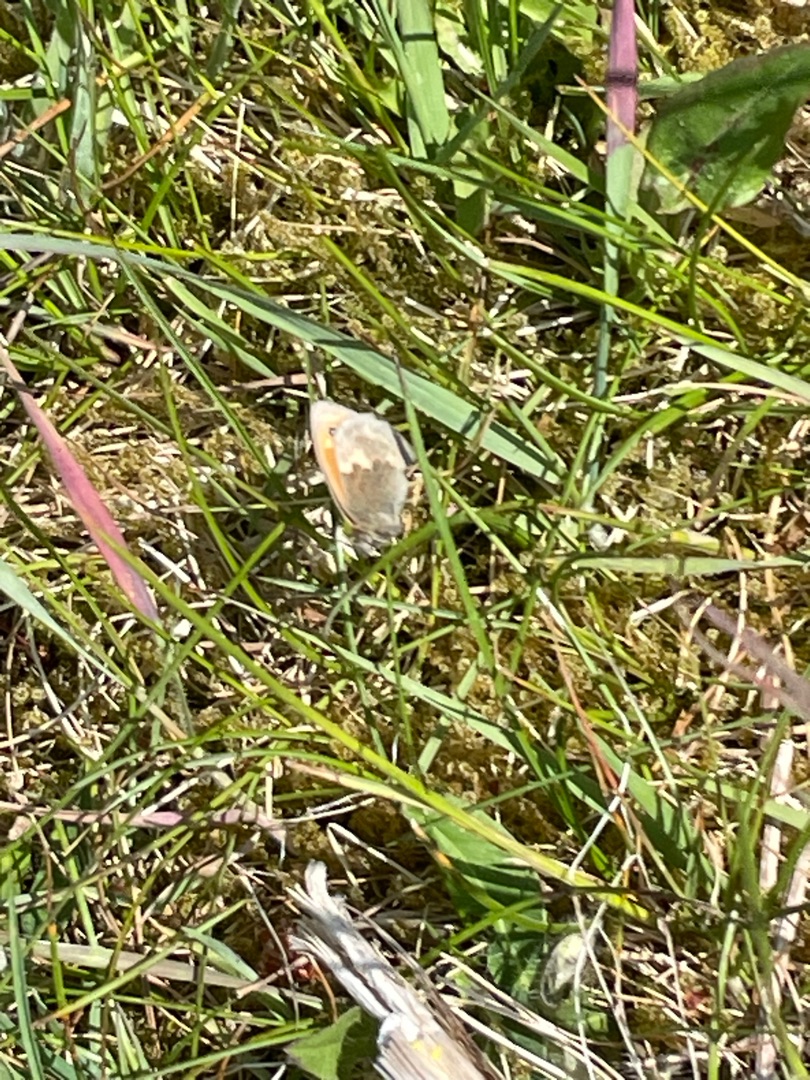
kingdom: Animalia
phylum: Arthropoda
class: Insecta
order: Lepidoptera
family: Nymphalidae
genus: Coenonympha
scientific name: Coenonympha pamphilus
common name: Okkergul randøje
